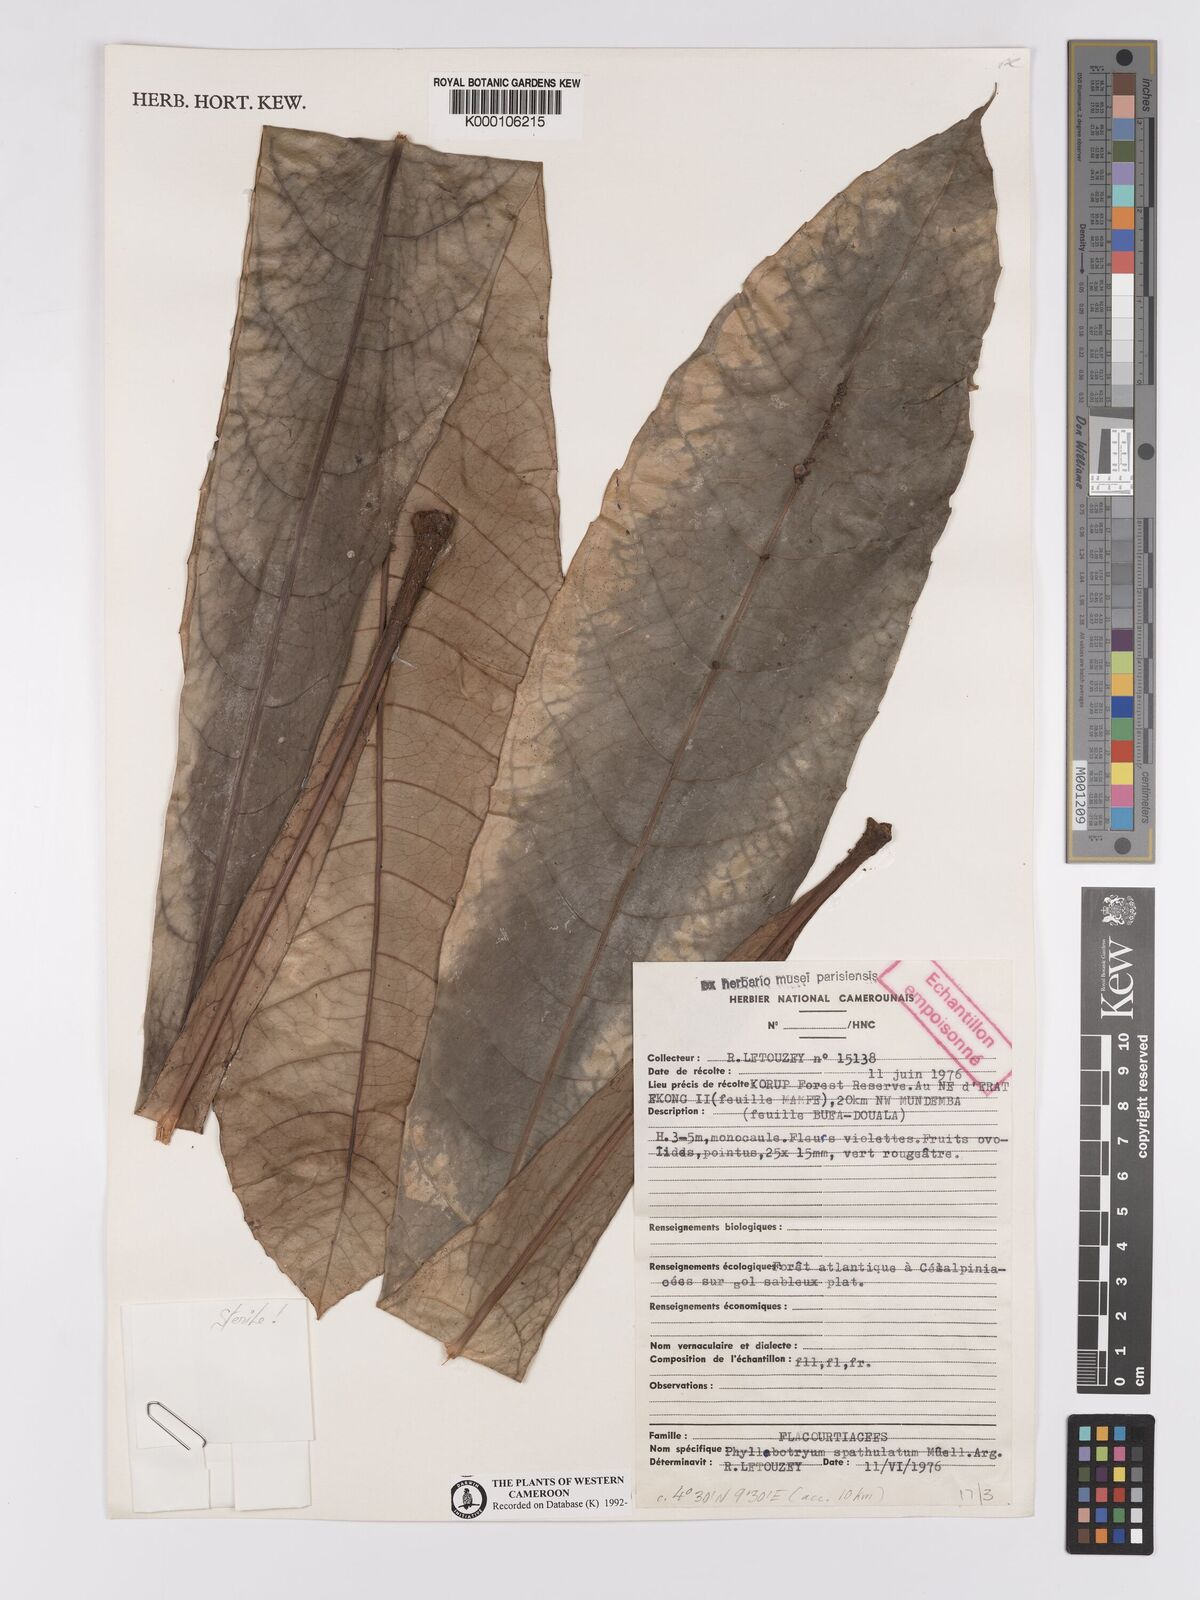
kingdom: Plantae
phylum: Tracheophyta
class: Magnoliopsida
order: Malpighiales
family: Salicaceae
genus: Phyllobotryon
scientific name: Phyllobotryon
